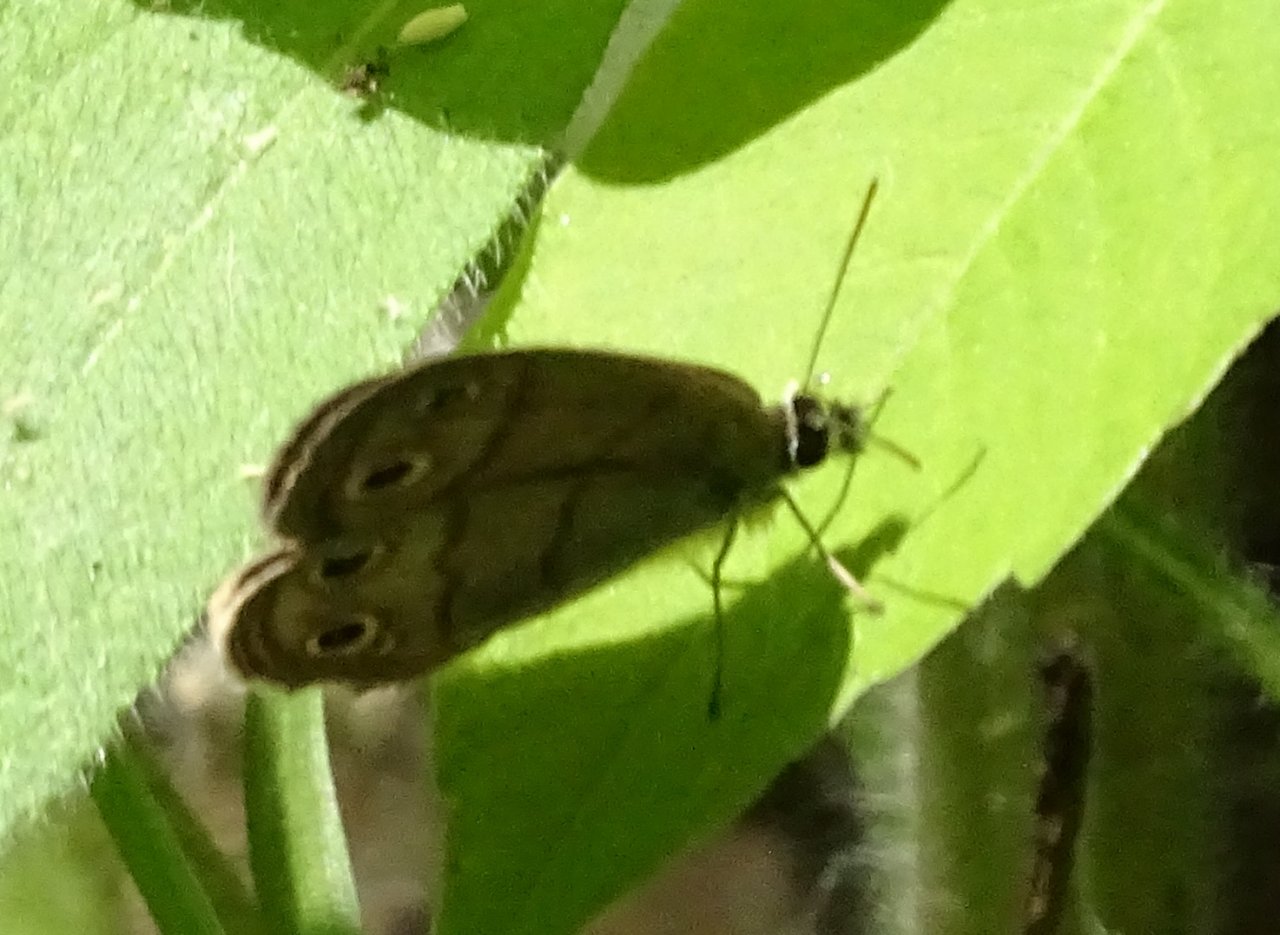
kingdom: Animalia
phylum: Arthropoda
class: Insecta
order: Lepidoptera
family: Nymphalidae
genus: Euptychia
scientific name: Euptychia cymela
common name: Little Wood Satyr
